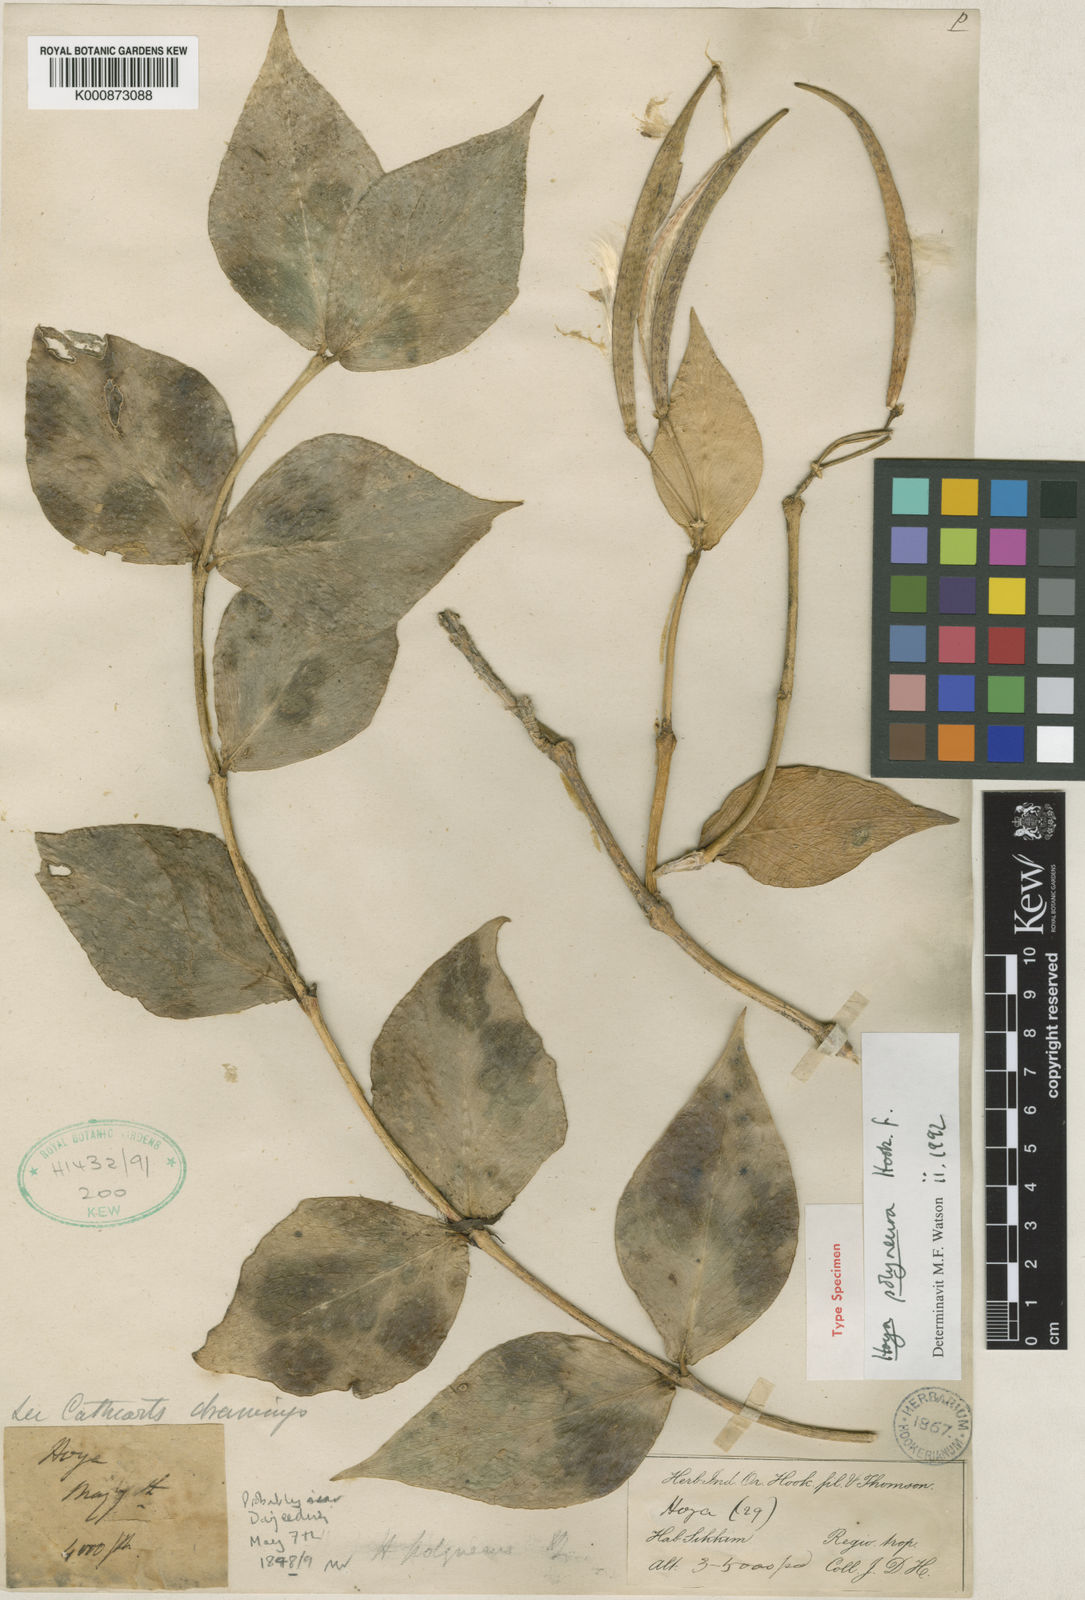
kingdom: Plantae
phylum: Tracheophyta
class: Magnoliopsida
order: Gentianales
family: Apocynaceae
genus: Hoya
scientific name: Hoya polyneura
